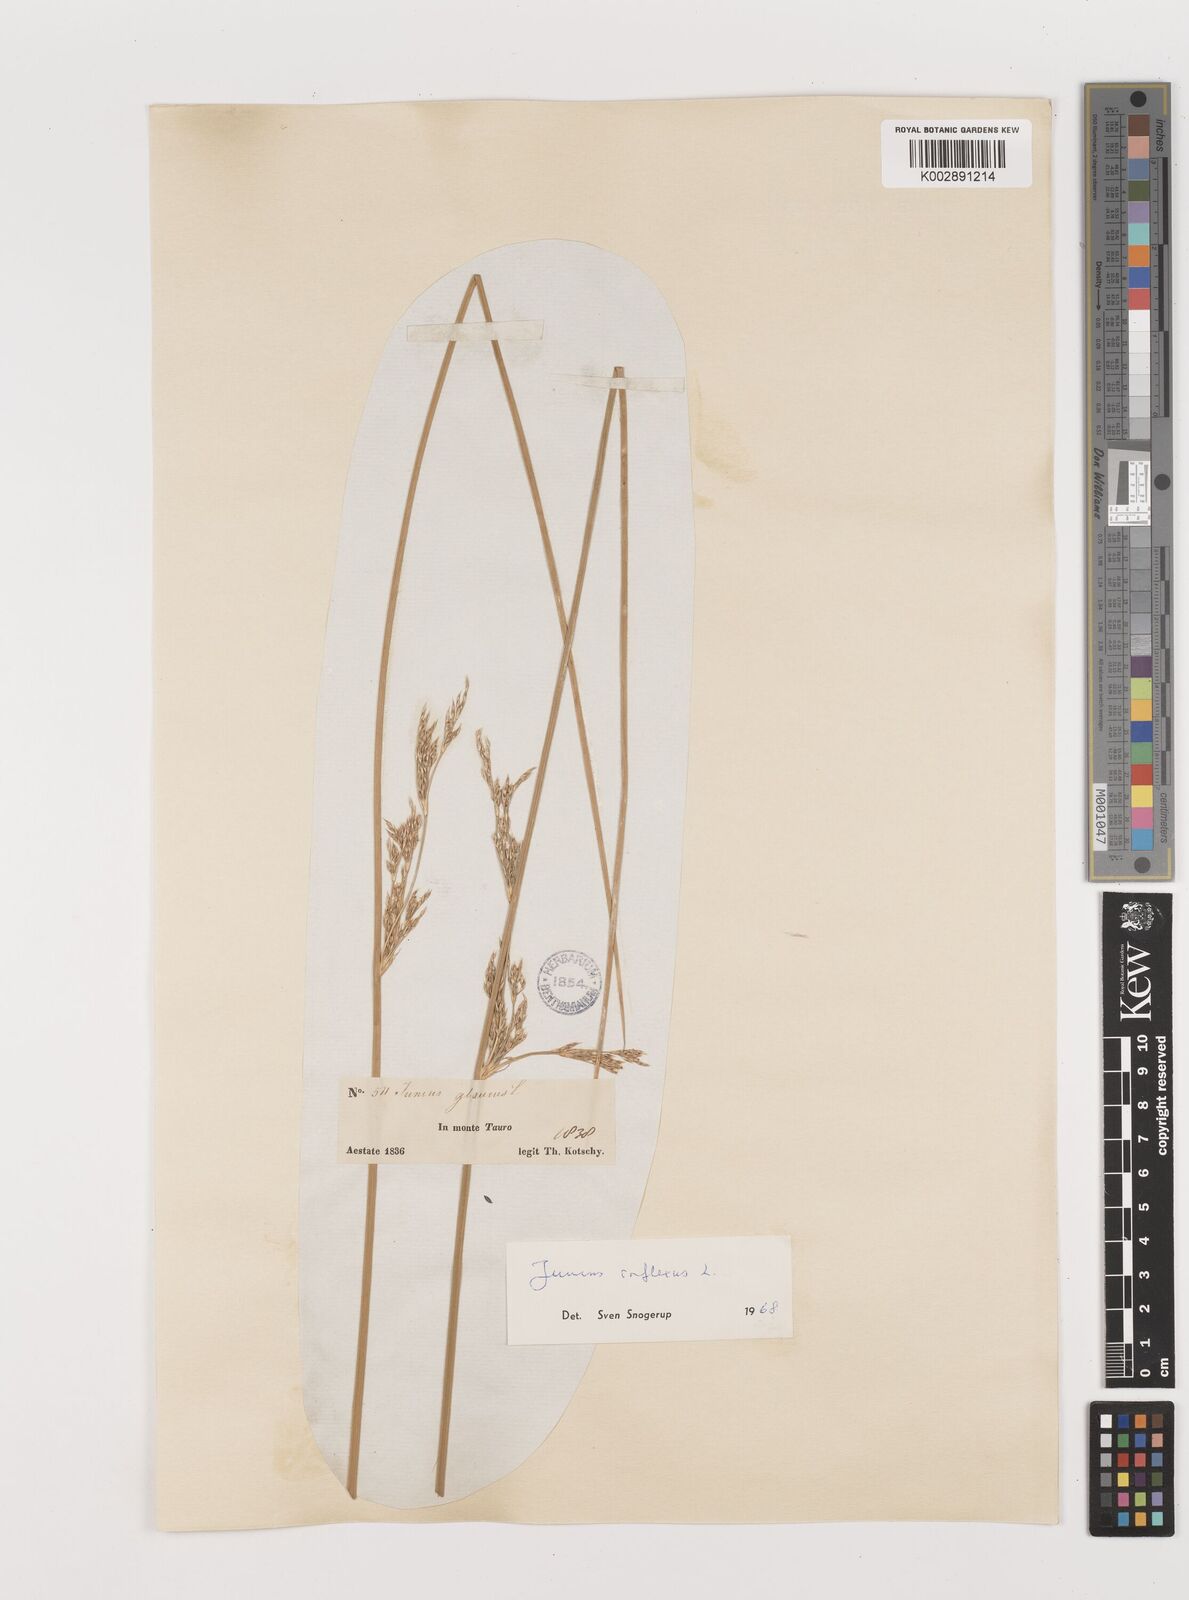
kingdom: Plantae
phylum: Tracheophyta
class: Liliopsida
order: Poales
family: Juncaceae
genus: Juncus
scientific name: Juncus inflexus
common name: Hard rush
